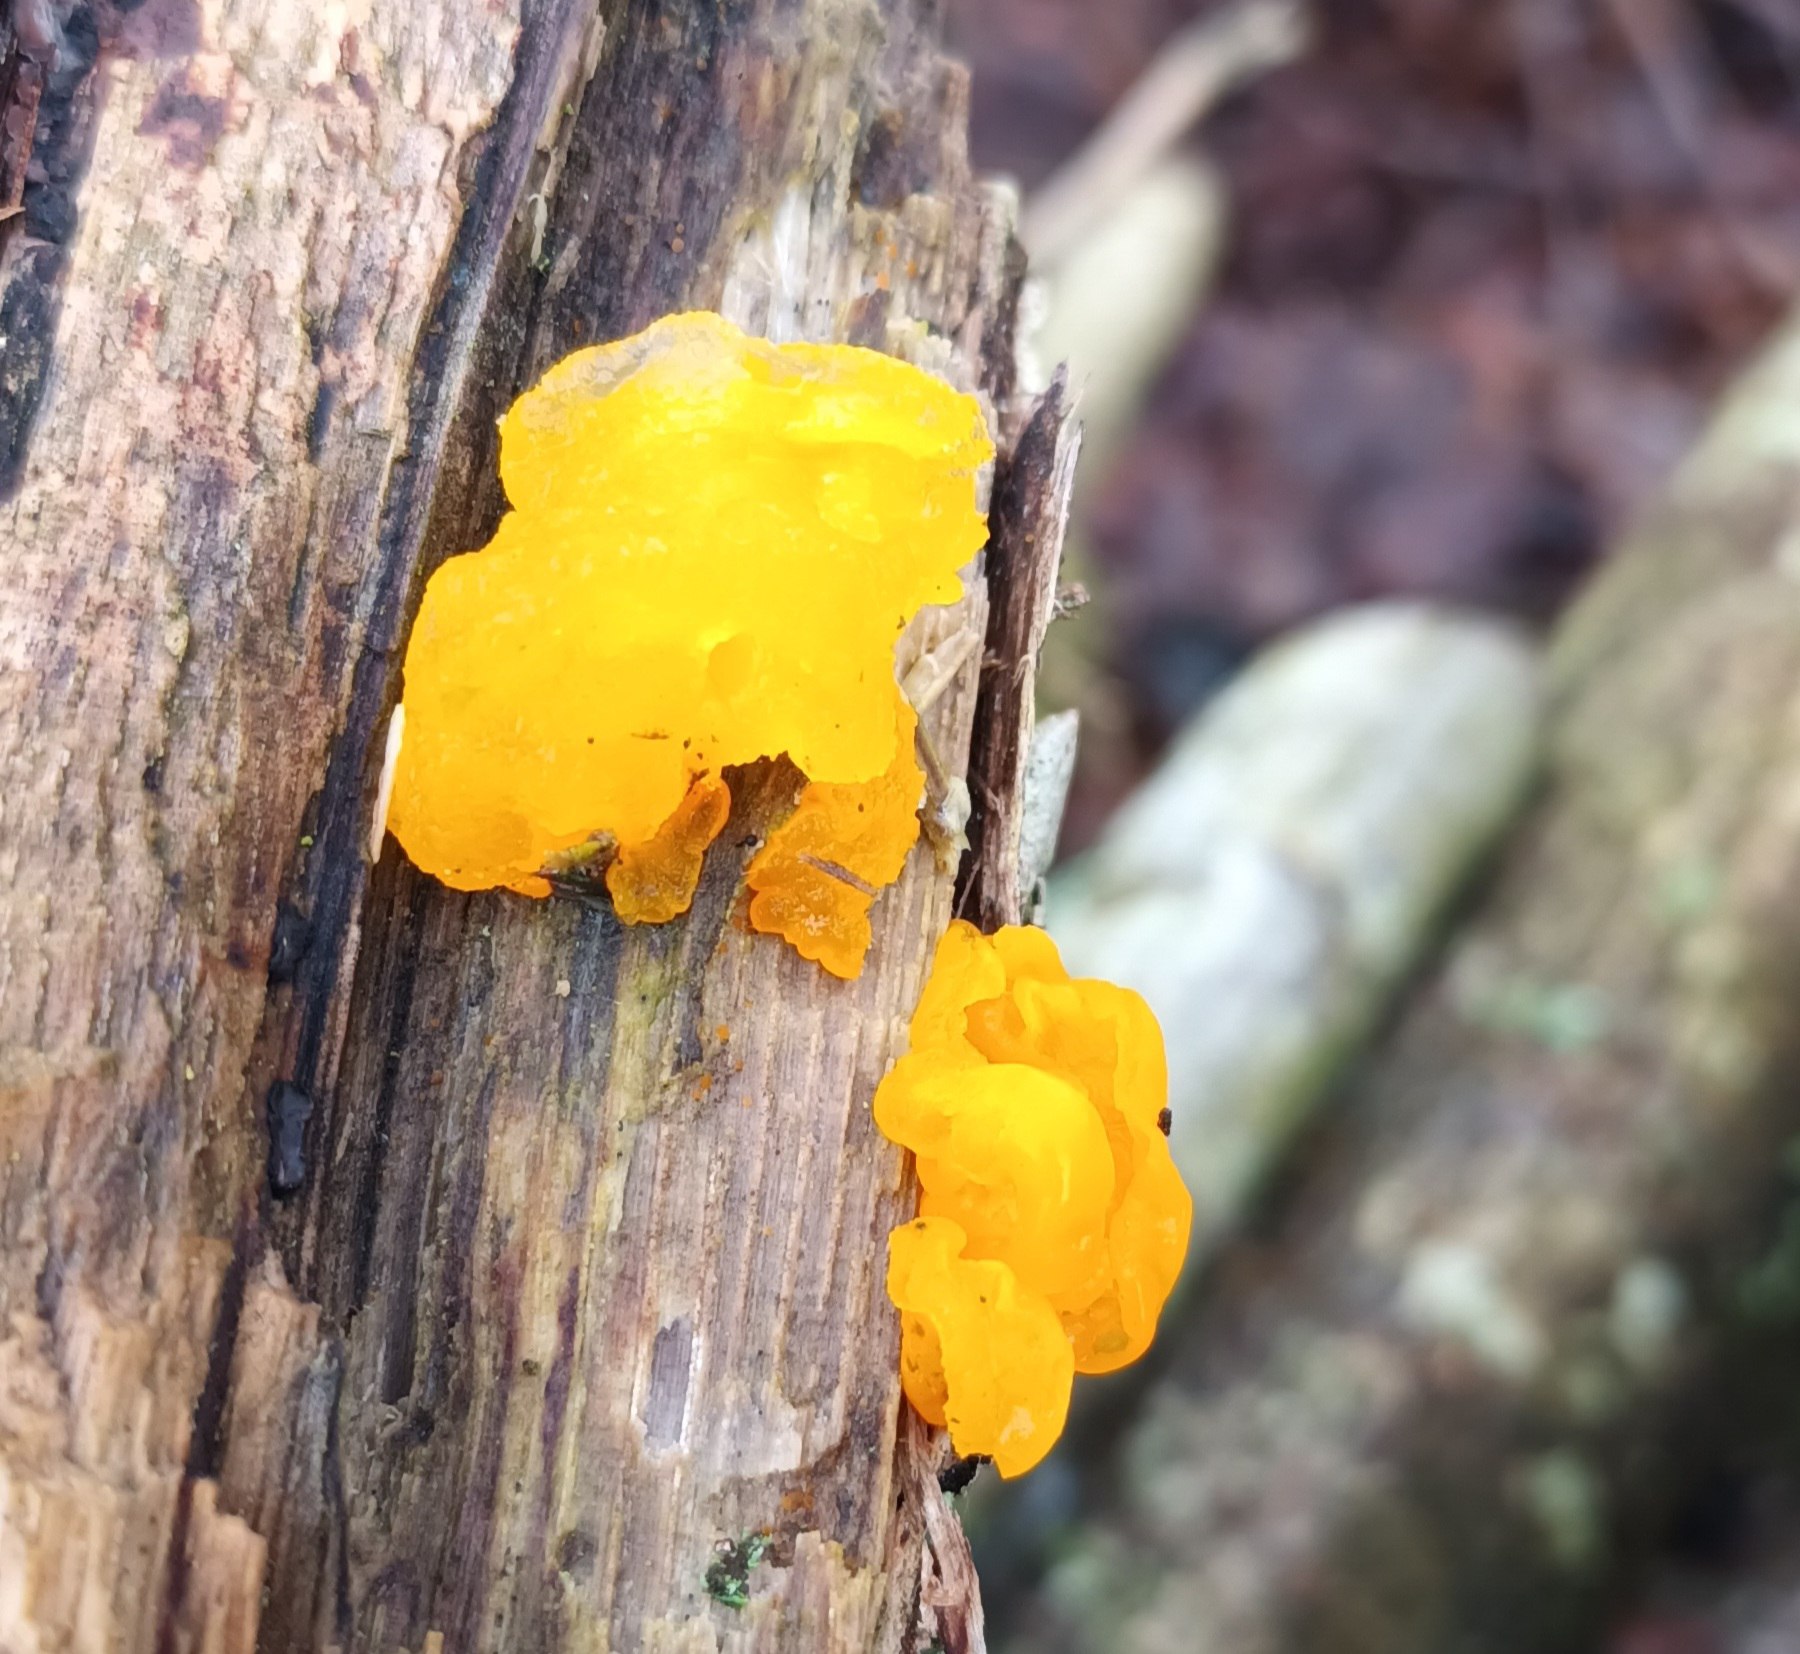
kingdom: Fungi
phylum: Basidiomycota
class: Tremellomycetes
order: Tremellales
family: Tremellaceae
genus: Tremella
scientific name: Tremella mesenterica
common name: Gul bævresvamp
